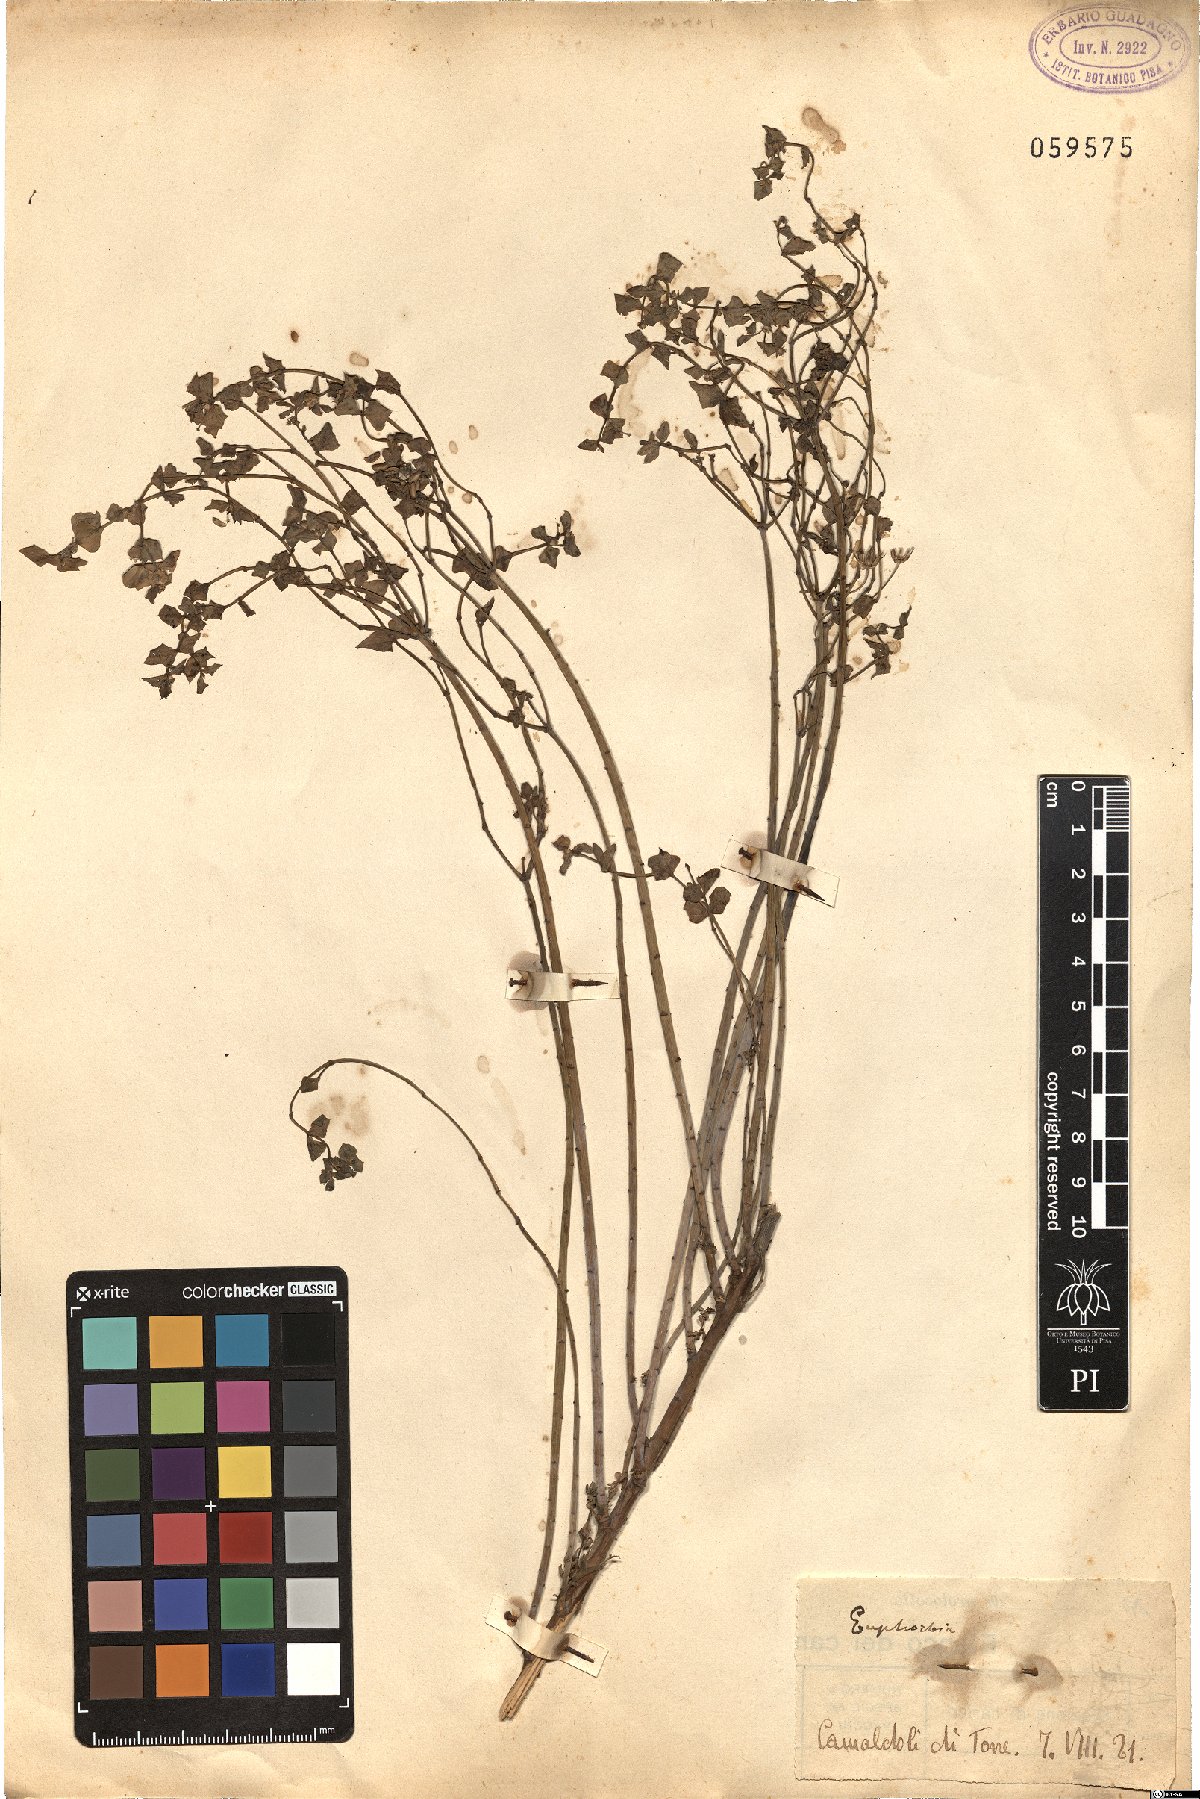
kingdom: Plantae
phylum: Tracheophyta
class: Magnoliopsida
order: Malpighiales
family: Euphorbiaceae
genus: Euphorbia
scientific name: Euphorbia
